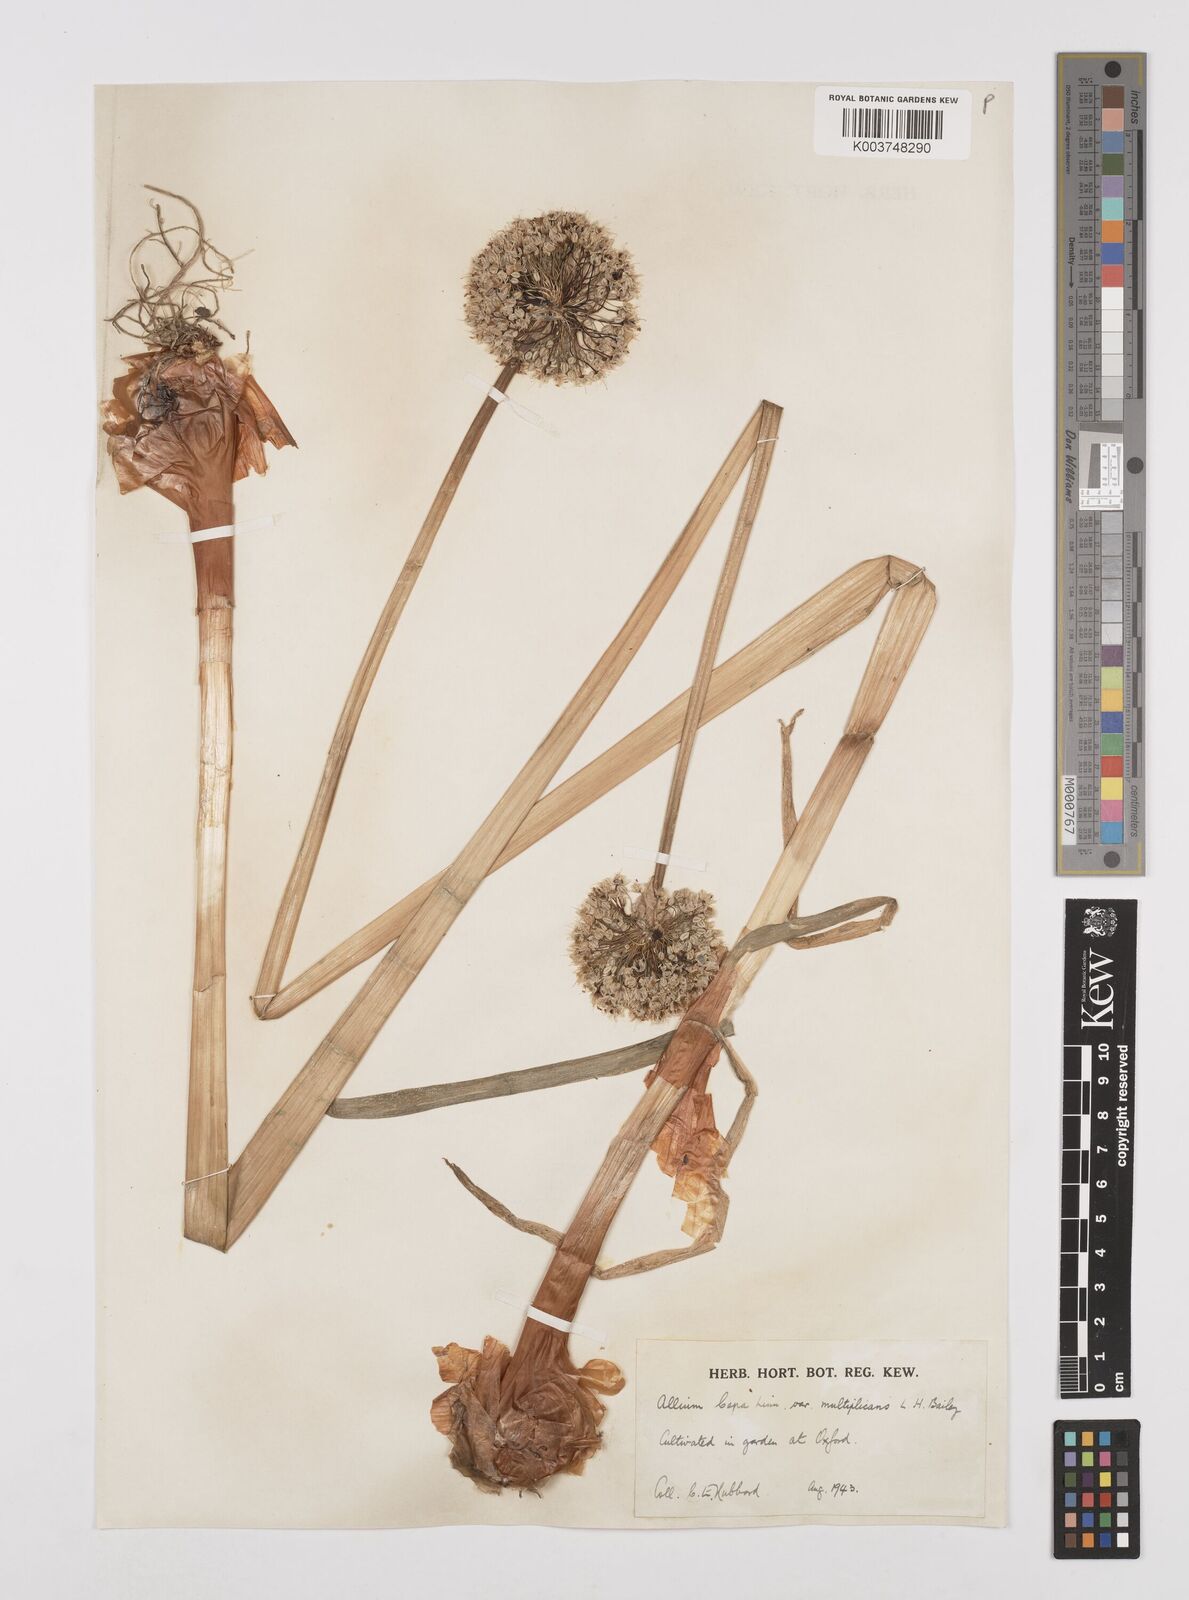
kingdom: Plantae
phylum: Tracheophyta
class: Liliopsida
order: Asparagales
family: Amaryllidaceae
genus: Allium
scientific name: Allium cepa
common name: Onion
